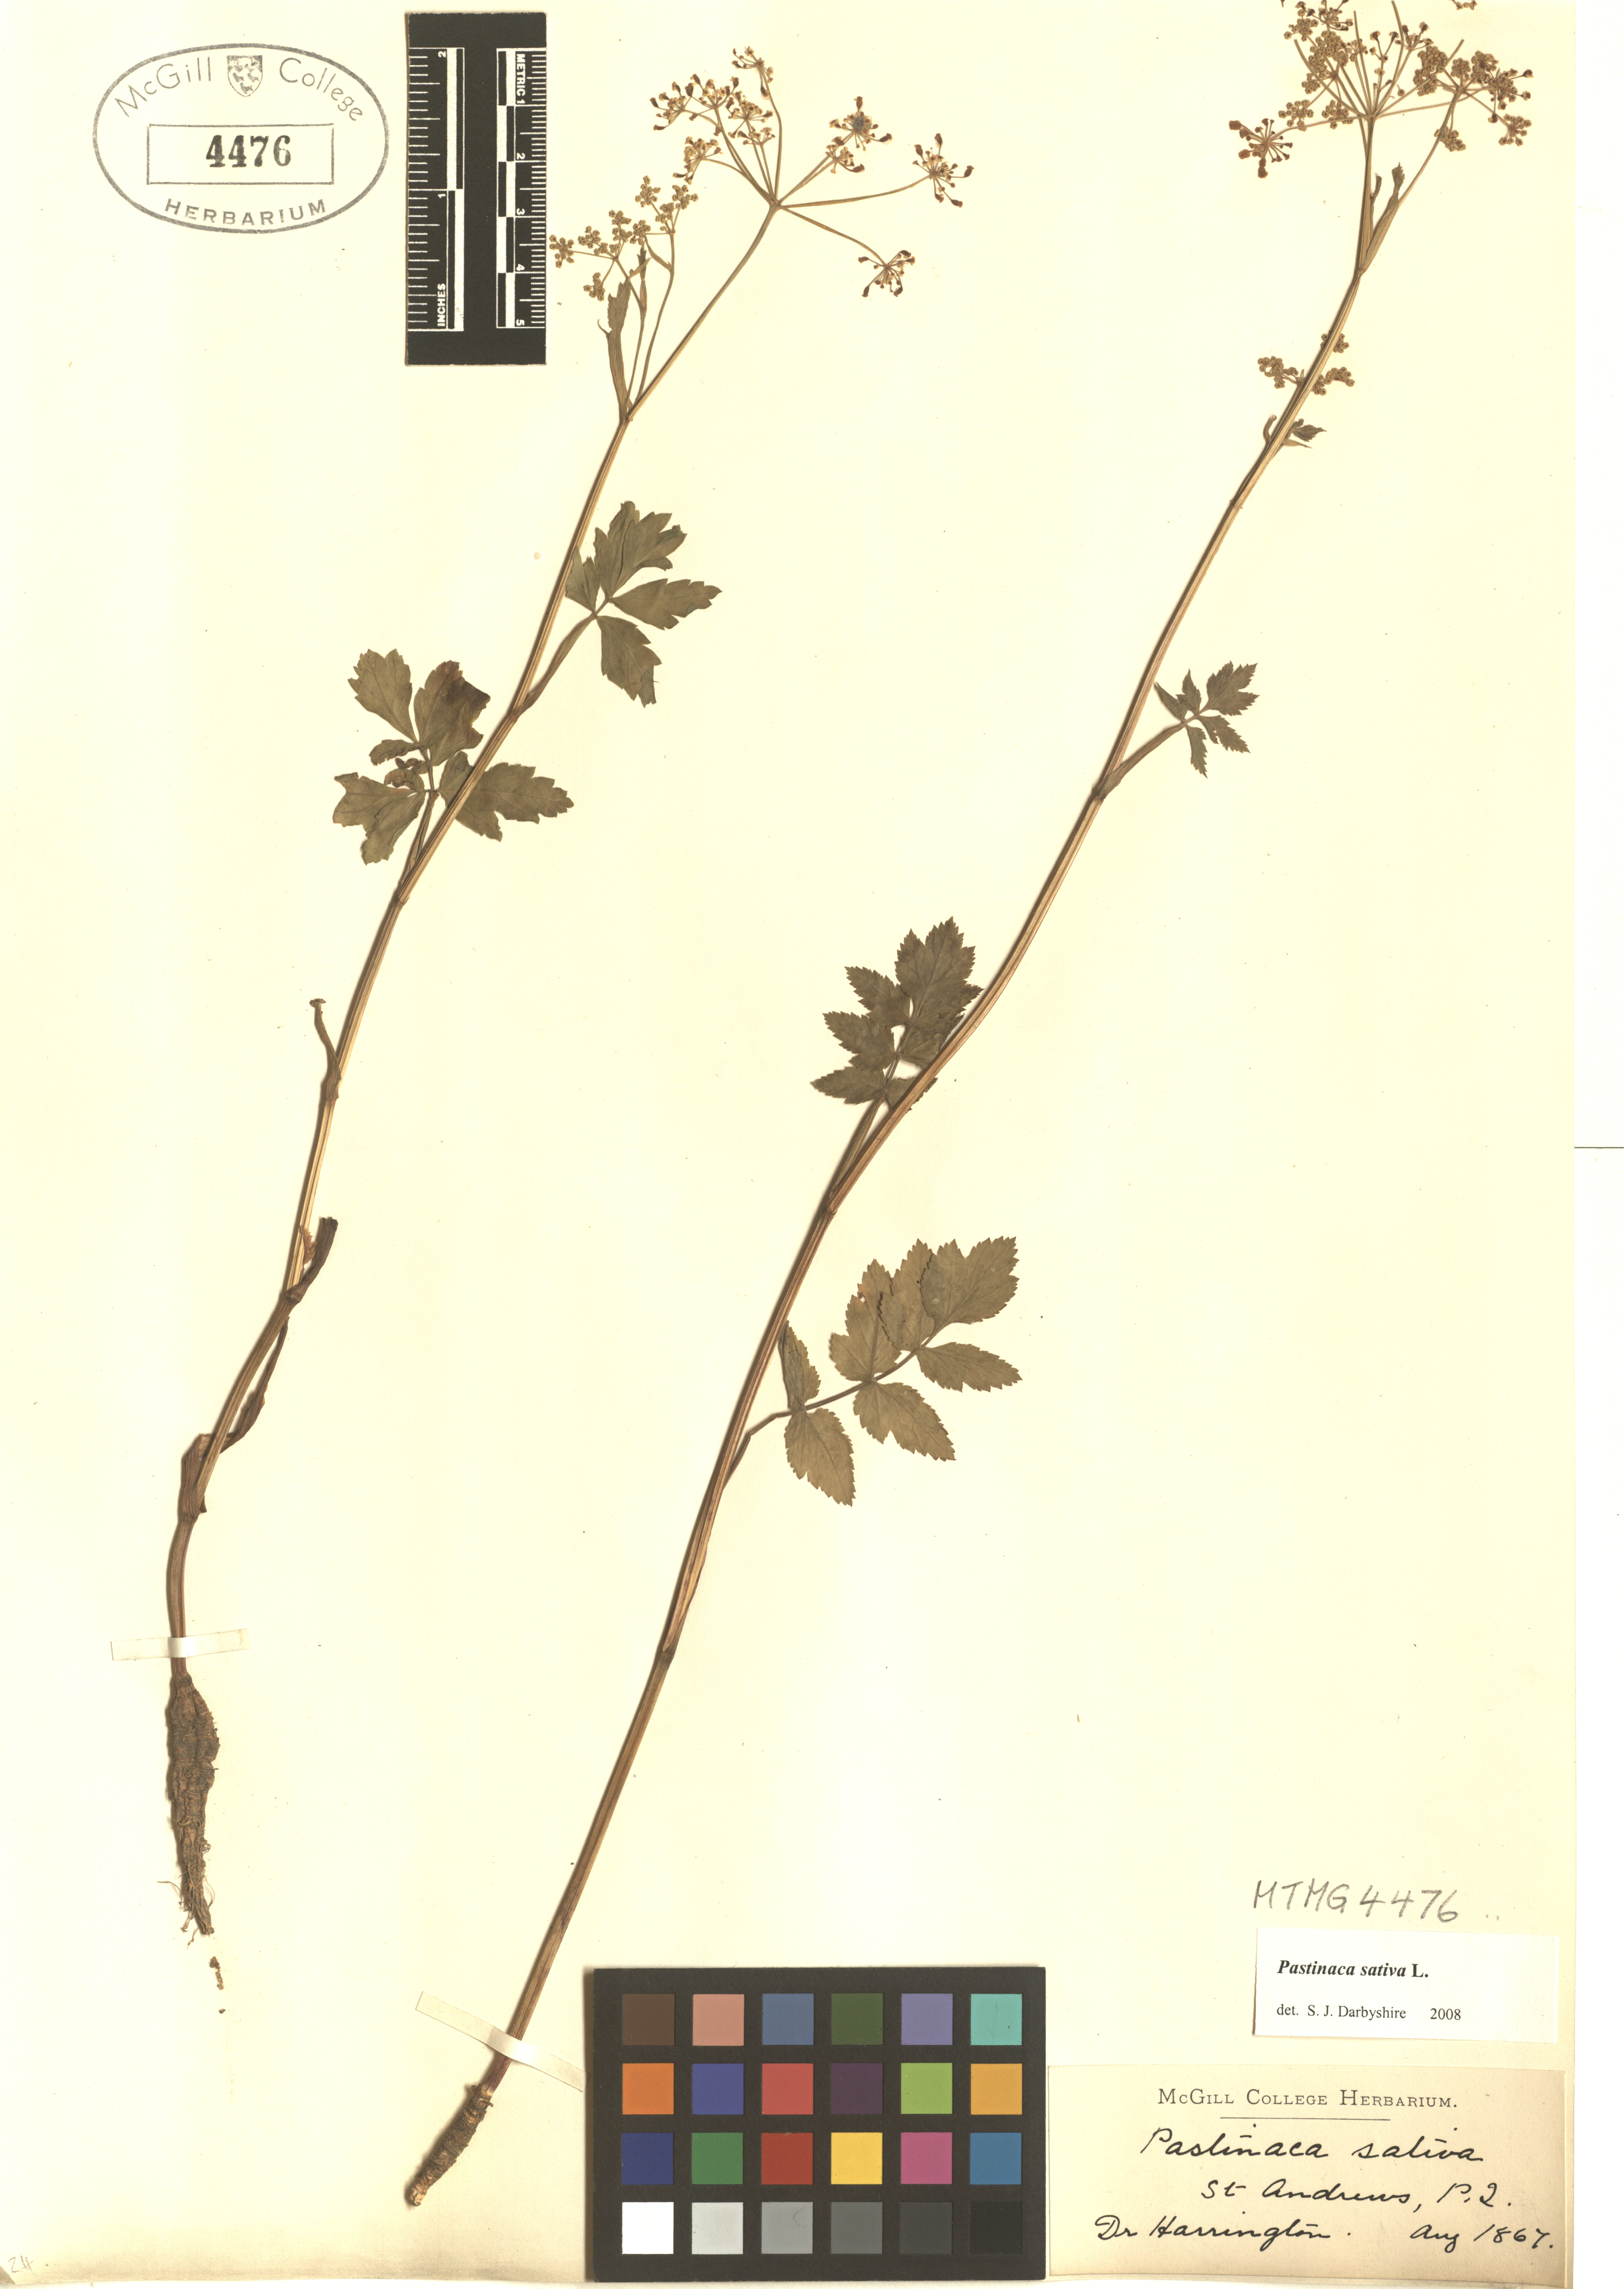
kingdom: Plantae
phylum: Tracheophyta
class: Magnoliopsida
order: Apiales
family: Apiaceae
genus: Pastinaca
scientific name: Pastinaca sativa
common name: Wild parsnip
